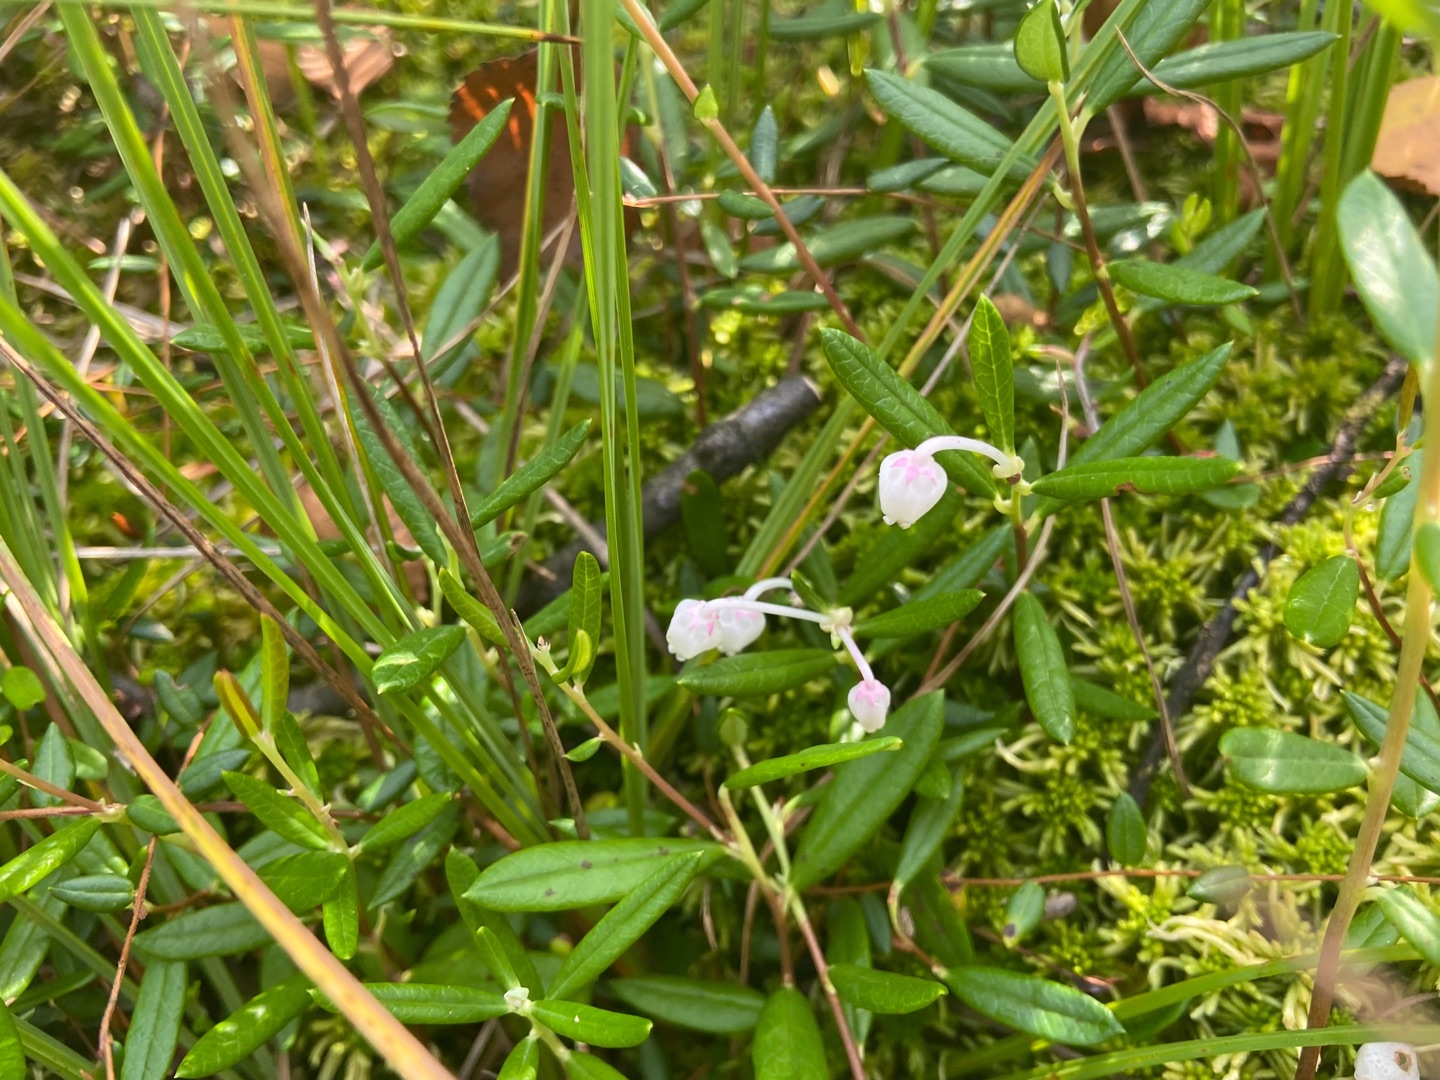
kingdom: Plantae
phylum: Tracheophyta
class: Magnoliopsida
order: Ericales
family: Ericaceae
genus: Andromeda
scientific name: Andromeda polifolia
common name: Rosmarinlyng
